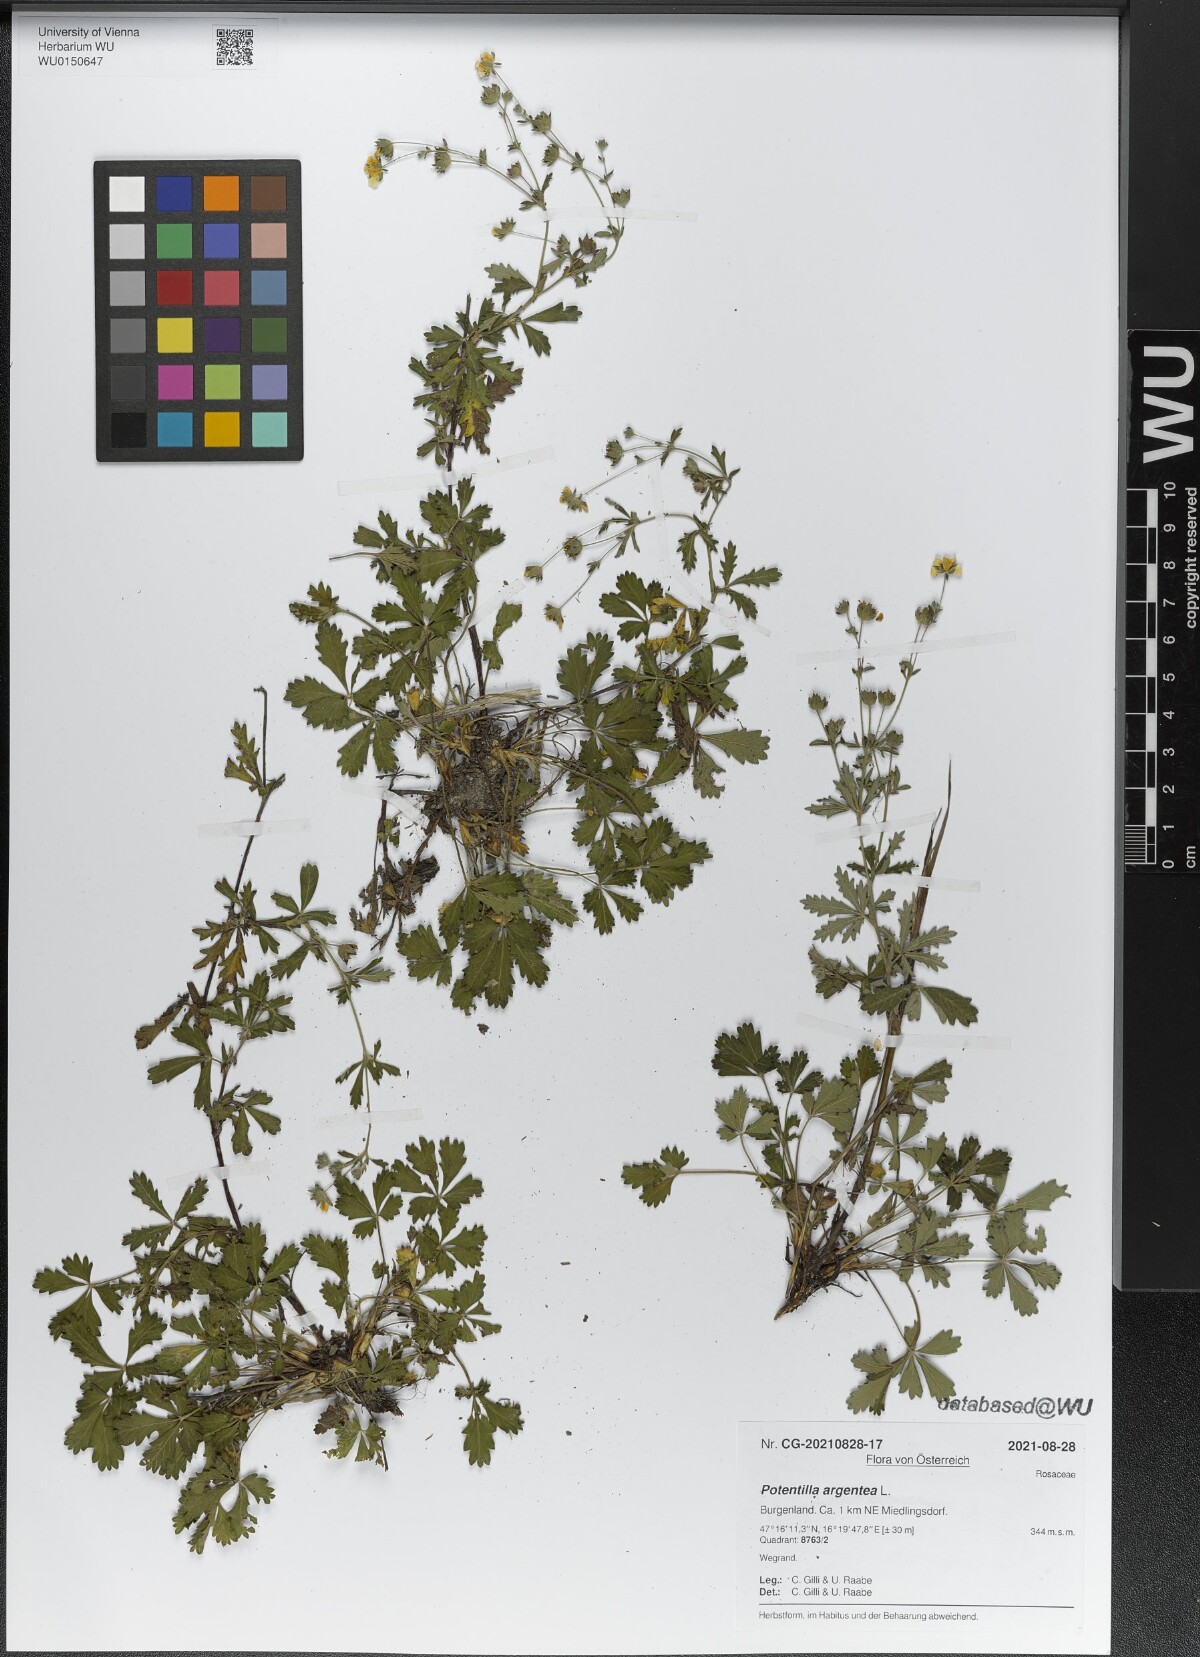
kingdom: Plantae
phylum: Tracheophyta
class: Magnoliopsida
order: Rosales
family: Rosaceae
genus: Potentilla
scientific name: Potentilla argentea
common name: Hoary cinquefoil
